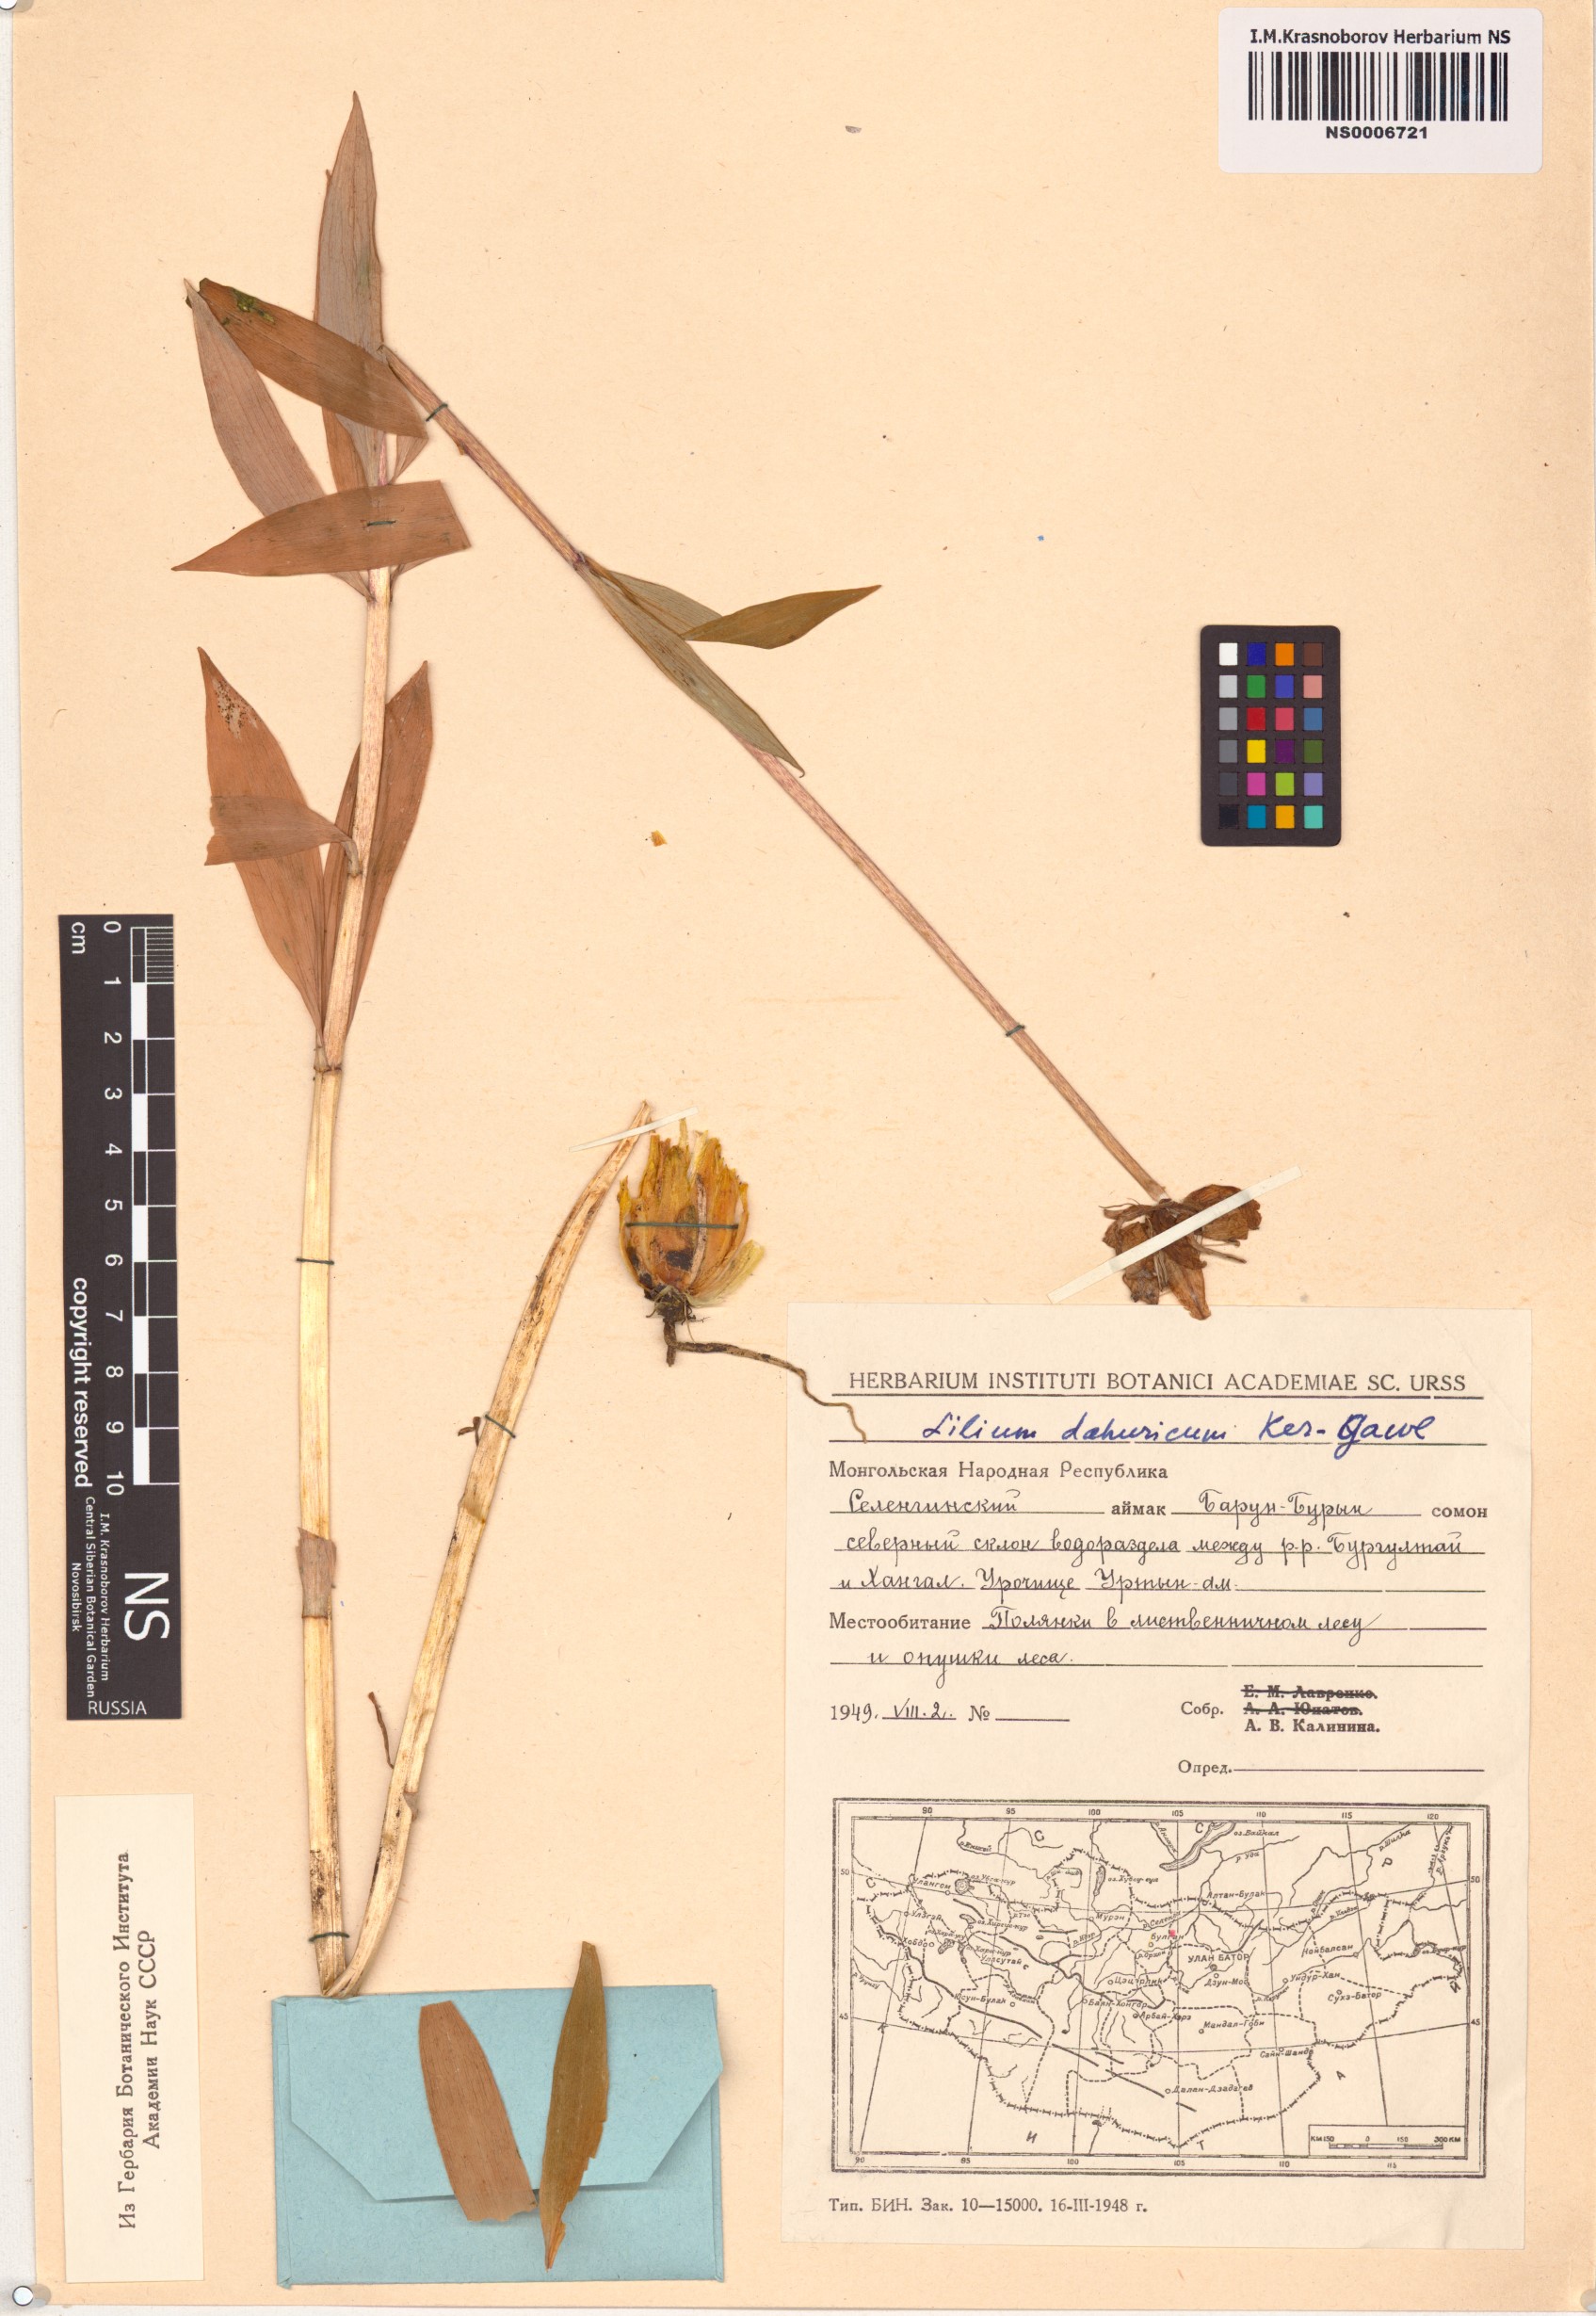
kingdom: Plantae
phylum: Tracheophyta
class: Liliopsida
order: Liliales
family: Liliaceae
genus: Lilium
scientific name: Lilium pensylvanicum
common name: Candlestick lily
